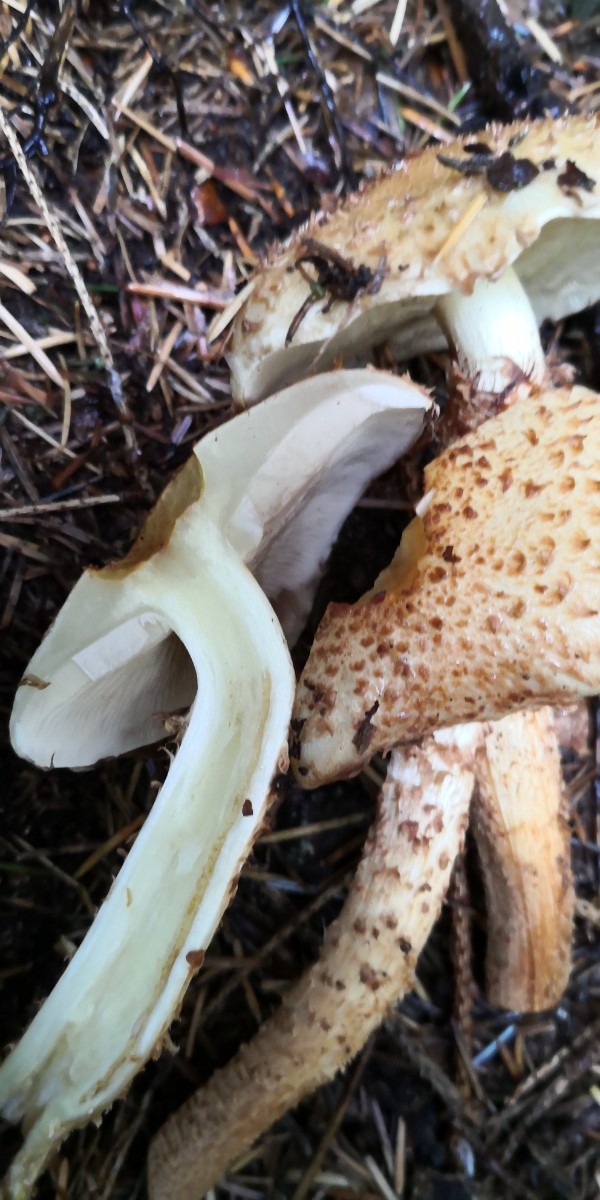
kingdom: Fungi
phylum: Basidiomycota
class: Agaricomycetes
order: Agaricales
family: Strophariaceae
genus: Pholiota
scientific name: Pholiota squarrosa
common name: krumskællet skælhat
